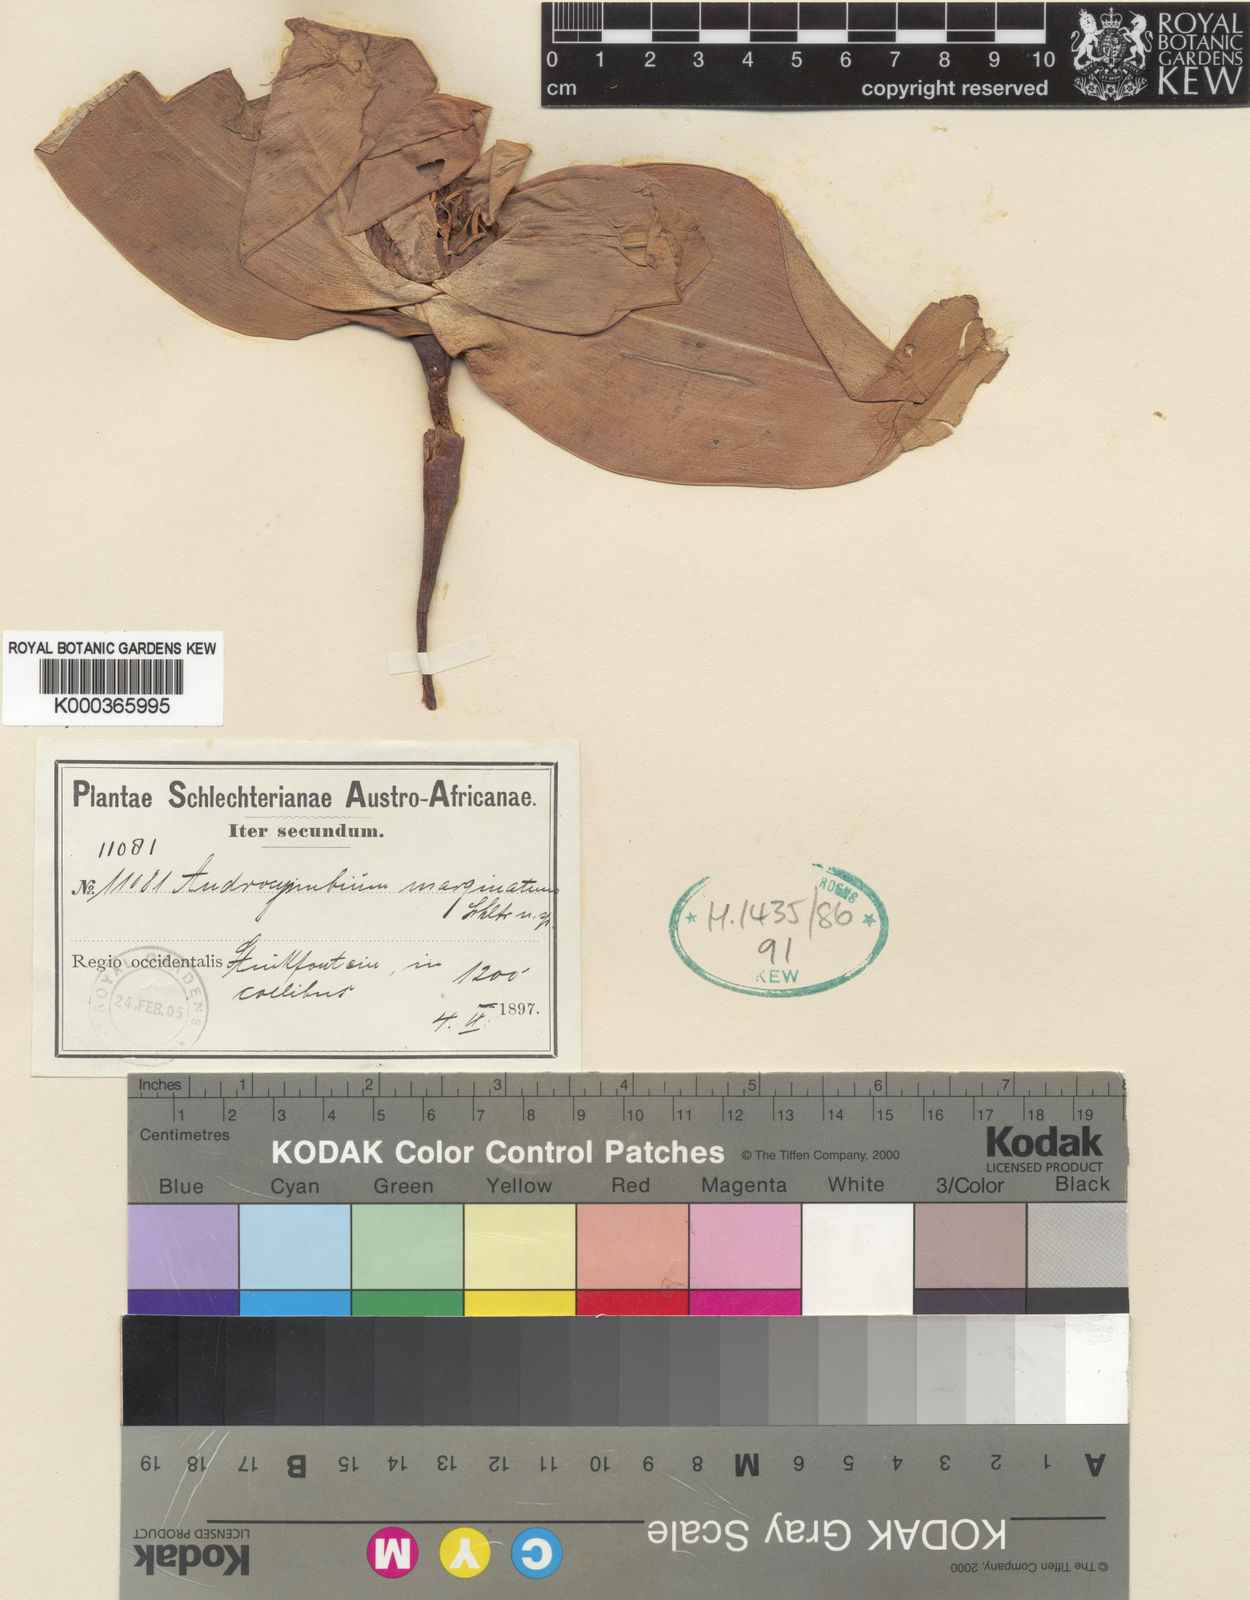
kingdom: Plantae
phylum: Tracheophyta
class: Liliopsida
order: Liliales
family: Colchicaceae
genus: Colchicum
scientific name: Colchicum
